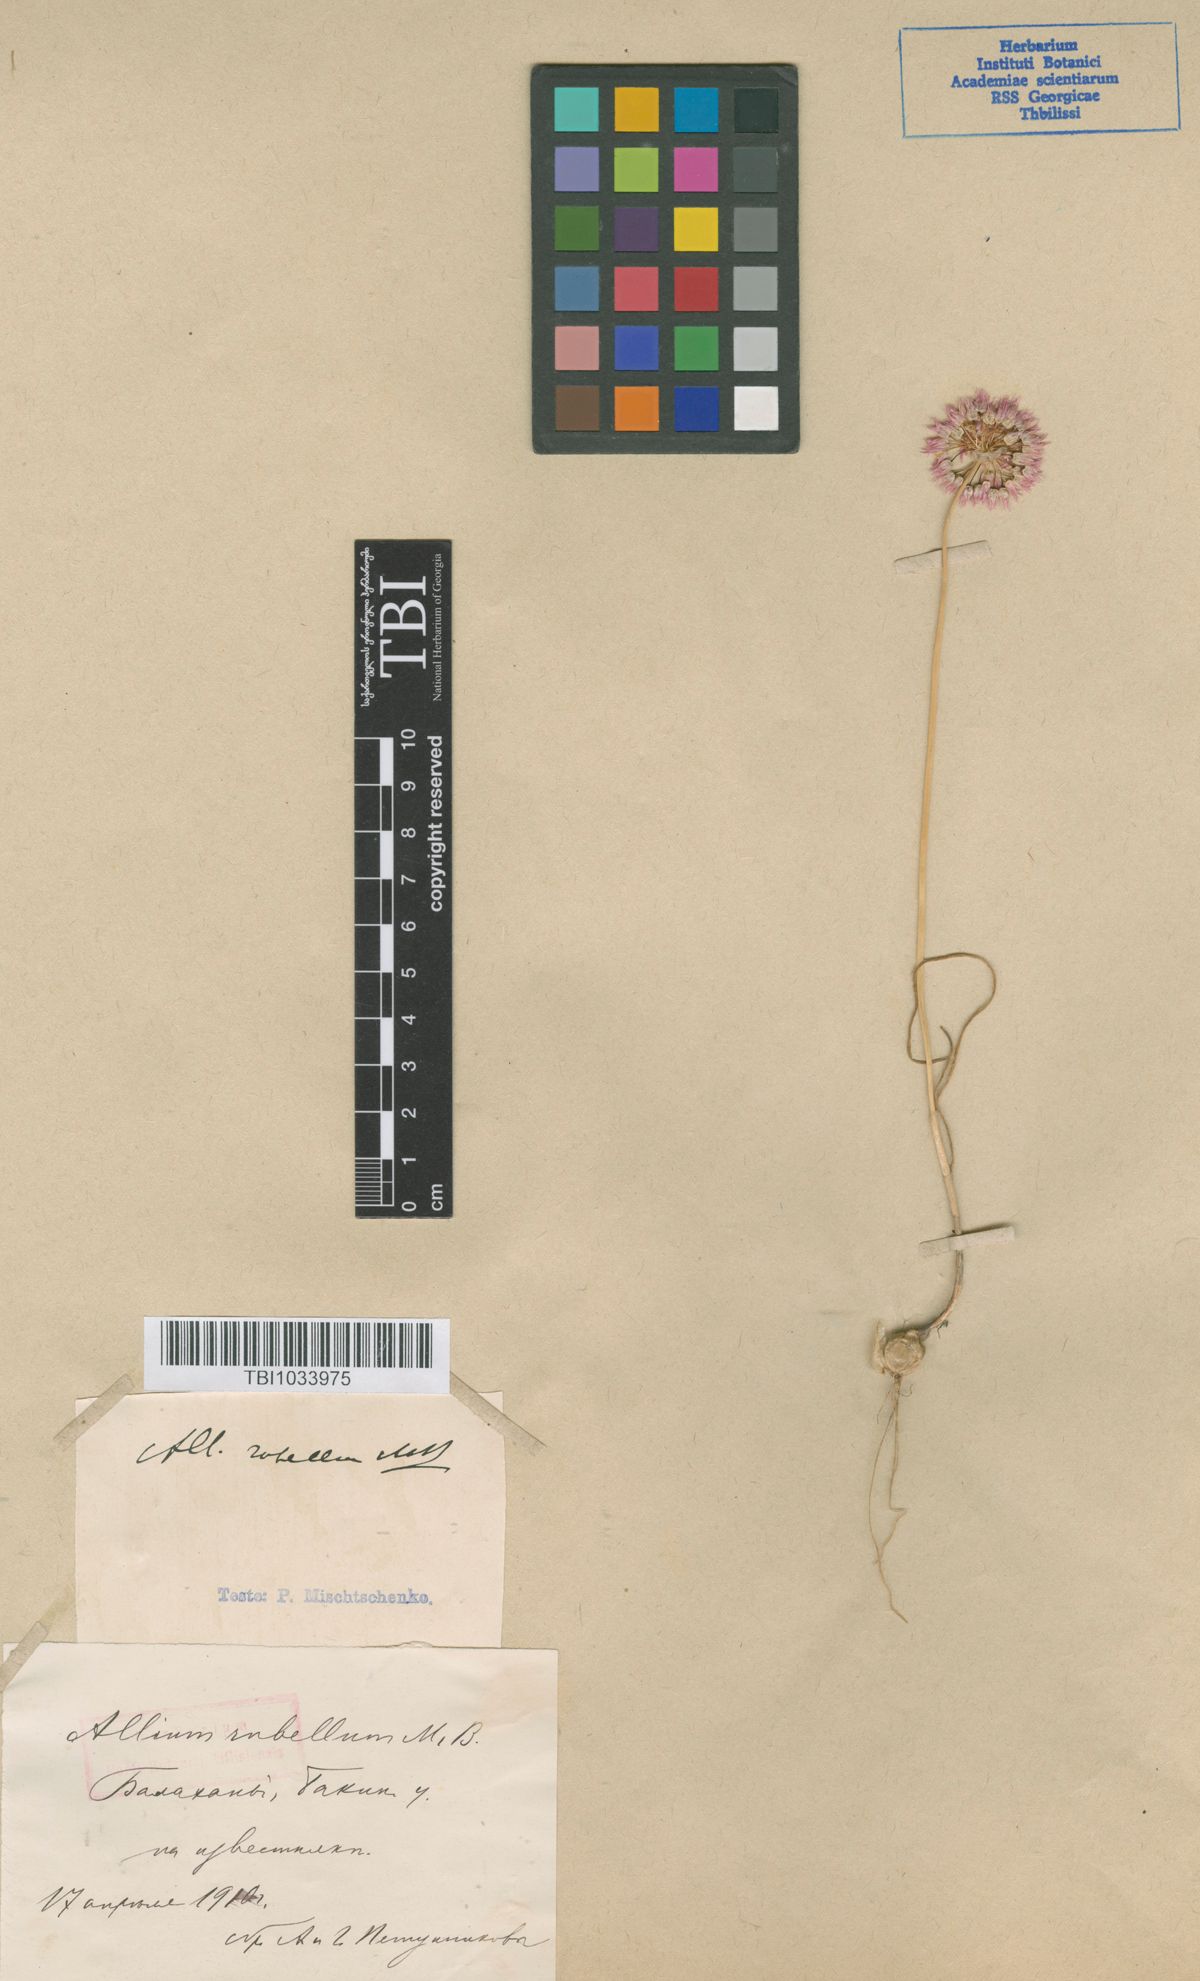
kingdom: Plantae
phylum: Tracheophyta
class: Liliopsida
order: Asparagales
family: Amaryllidaceae
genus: Allium
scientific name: Allium rubellum
